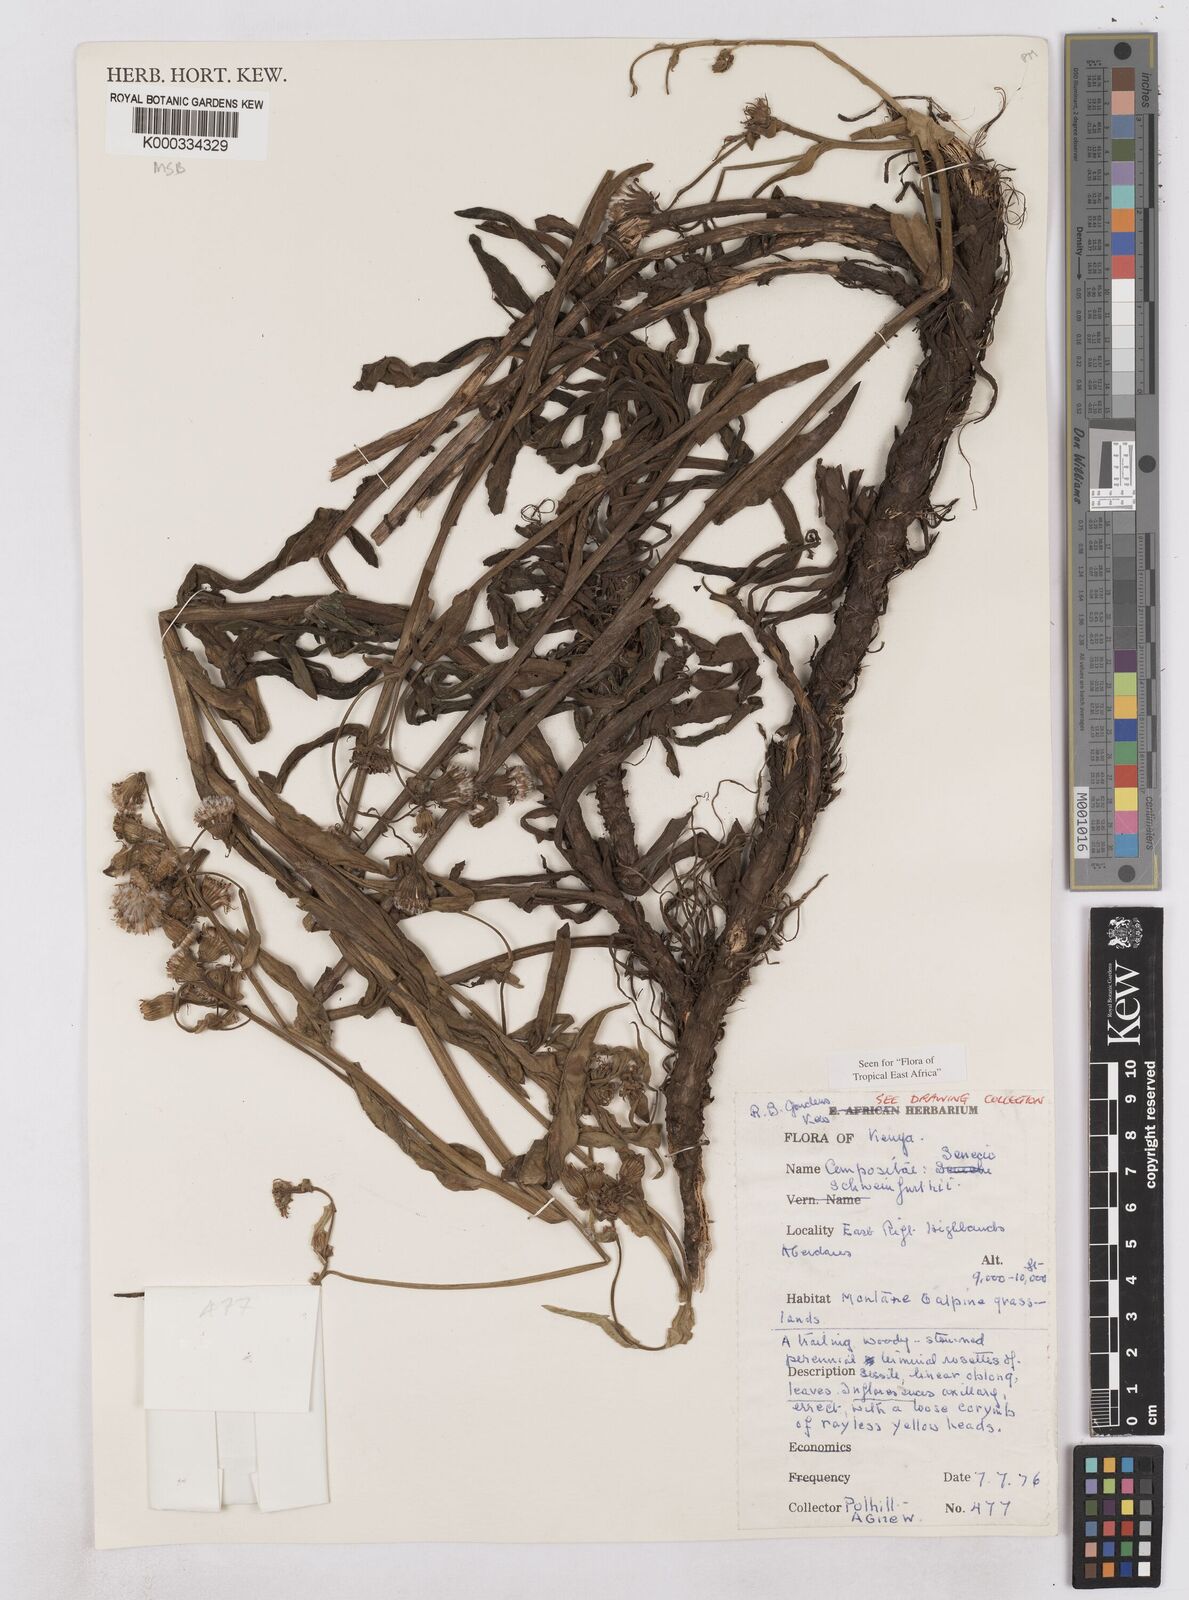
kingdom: Plantae
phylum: Tracheophyta
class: Magnoliopsida
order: Asterales
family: Asteraceae
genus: Senecio
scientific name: Senecio schweinfurthii
